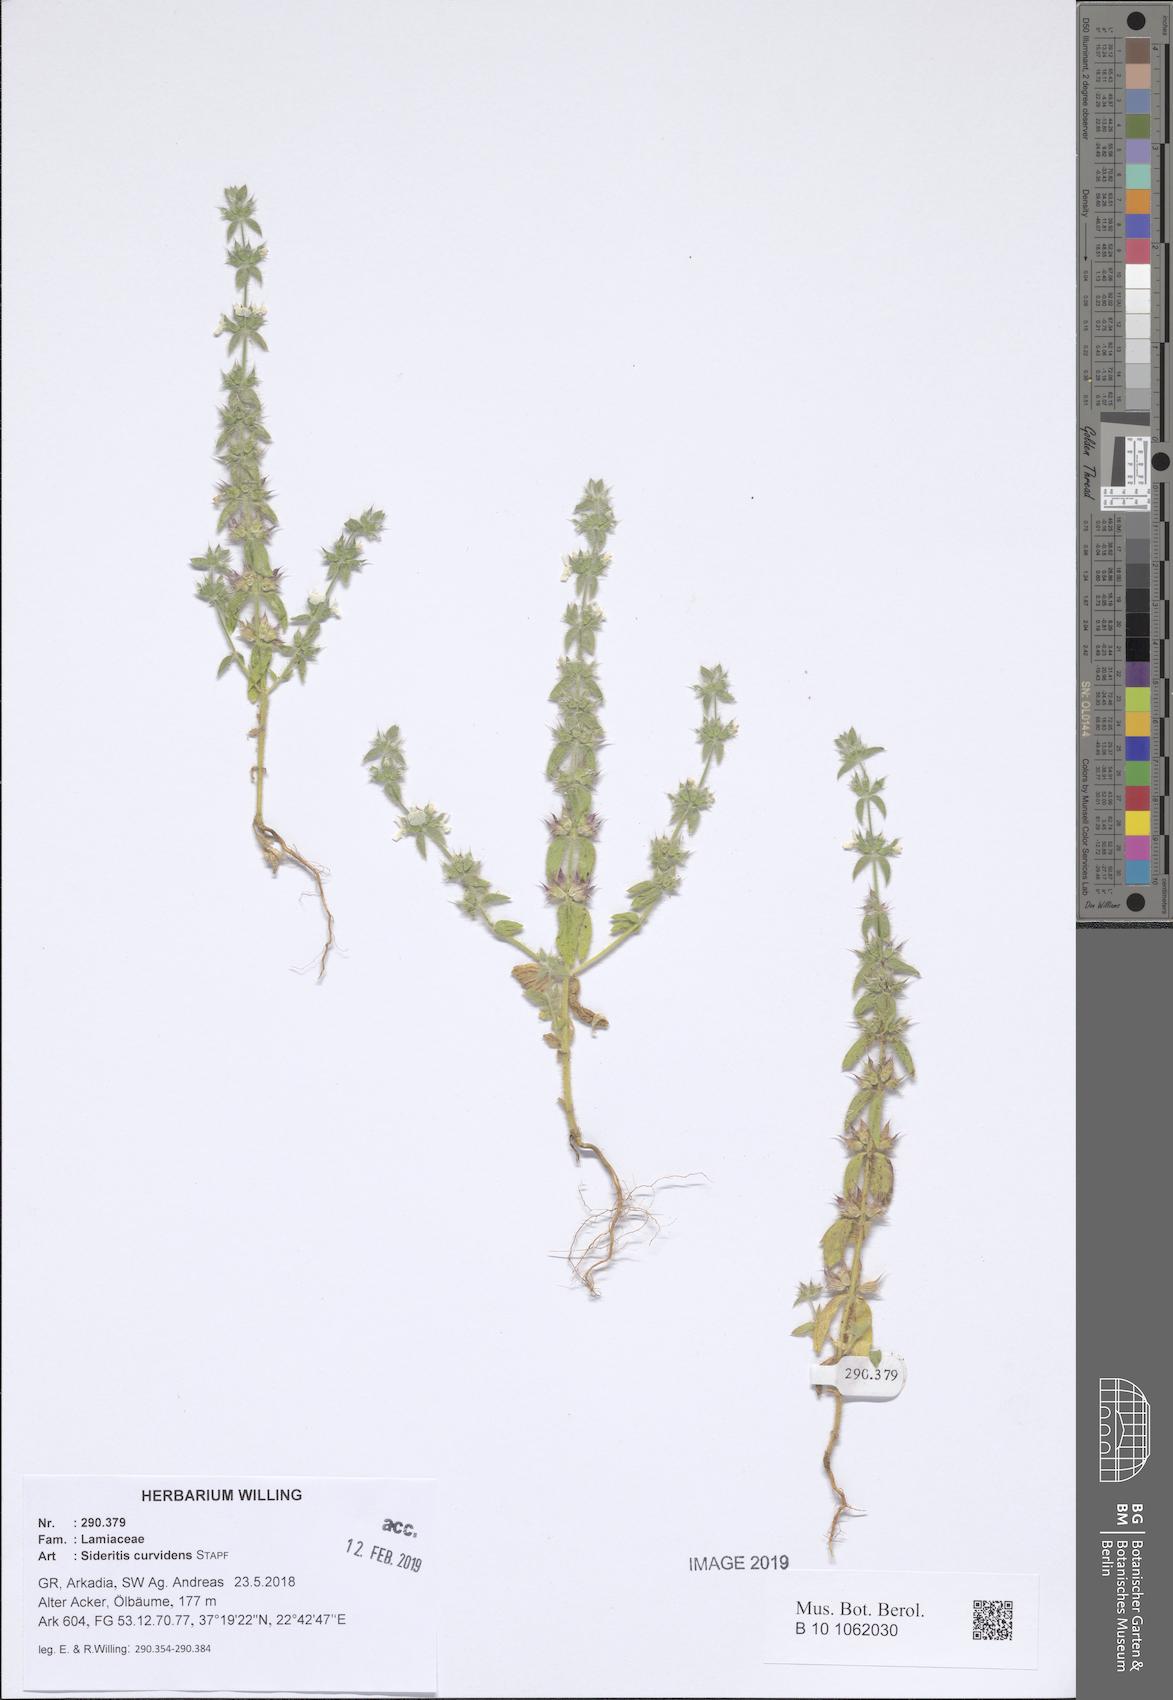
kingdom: Plantae
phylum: Tracheophyta
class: Magnoliopsida
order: Lamiales
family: Lamiaceae
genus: Sideritis
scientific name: Sideritis romana
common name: Simplebeak ironwort
